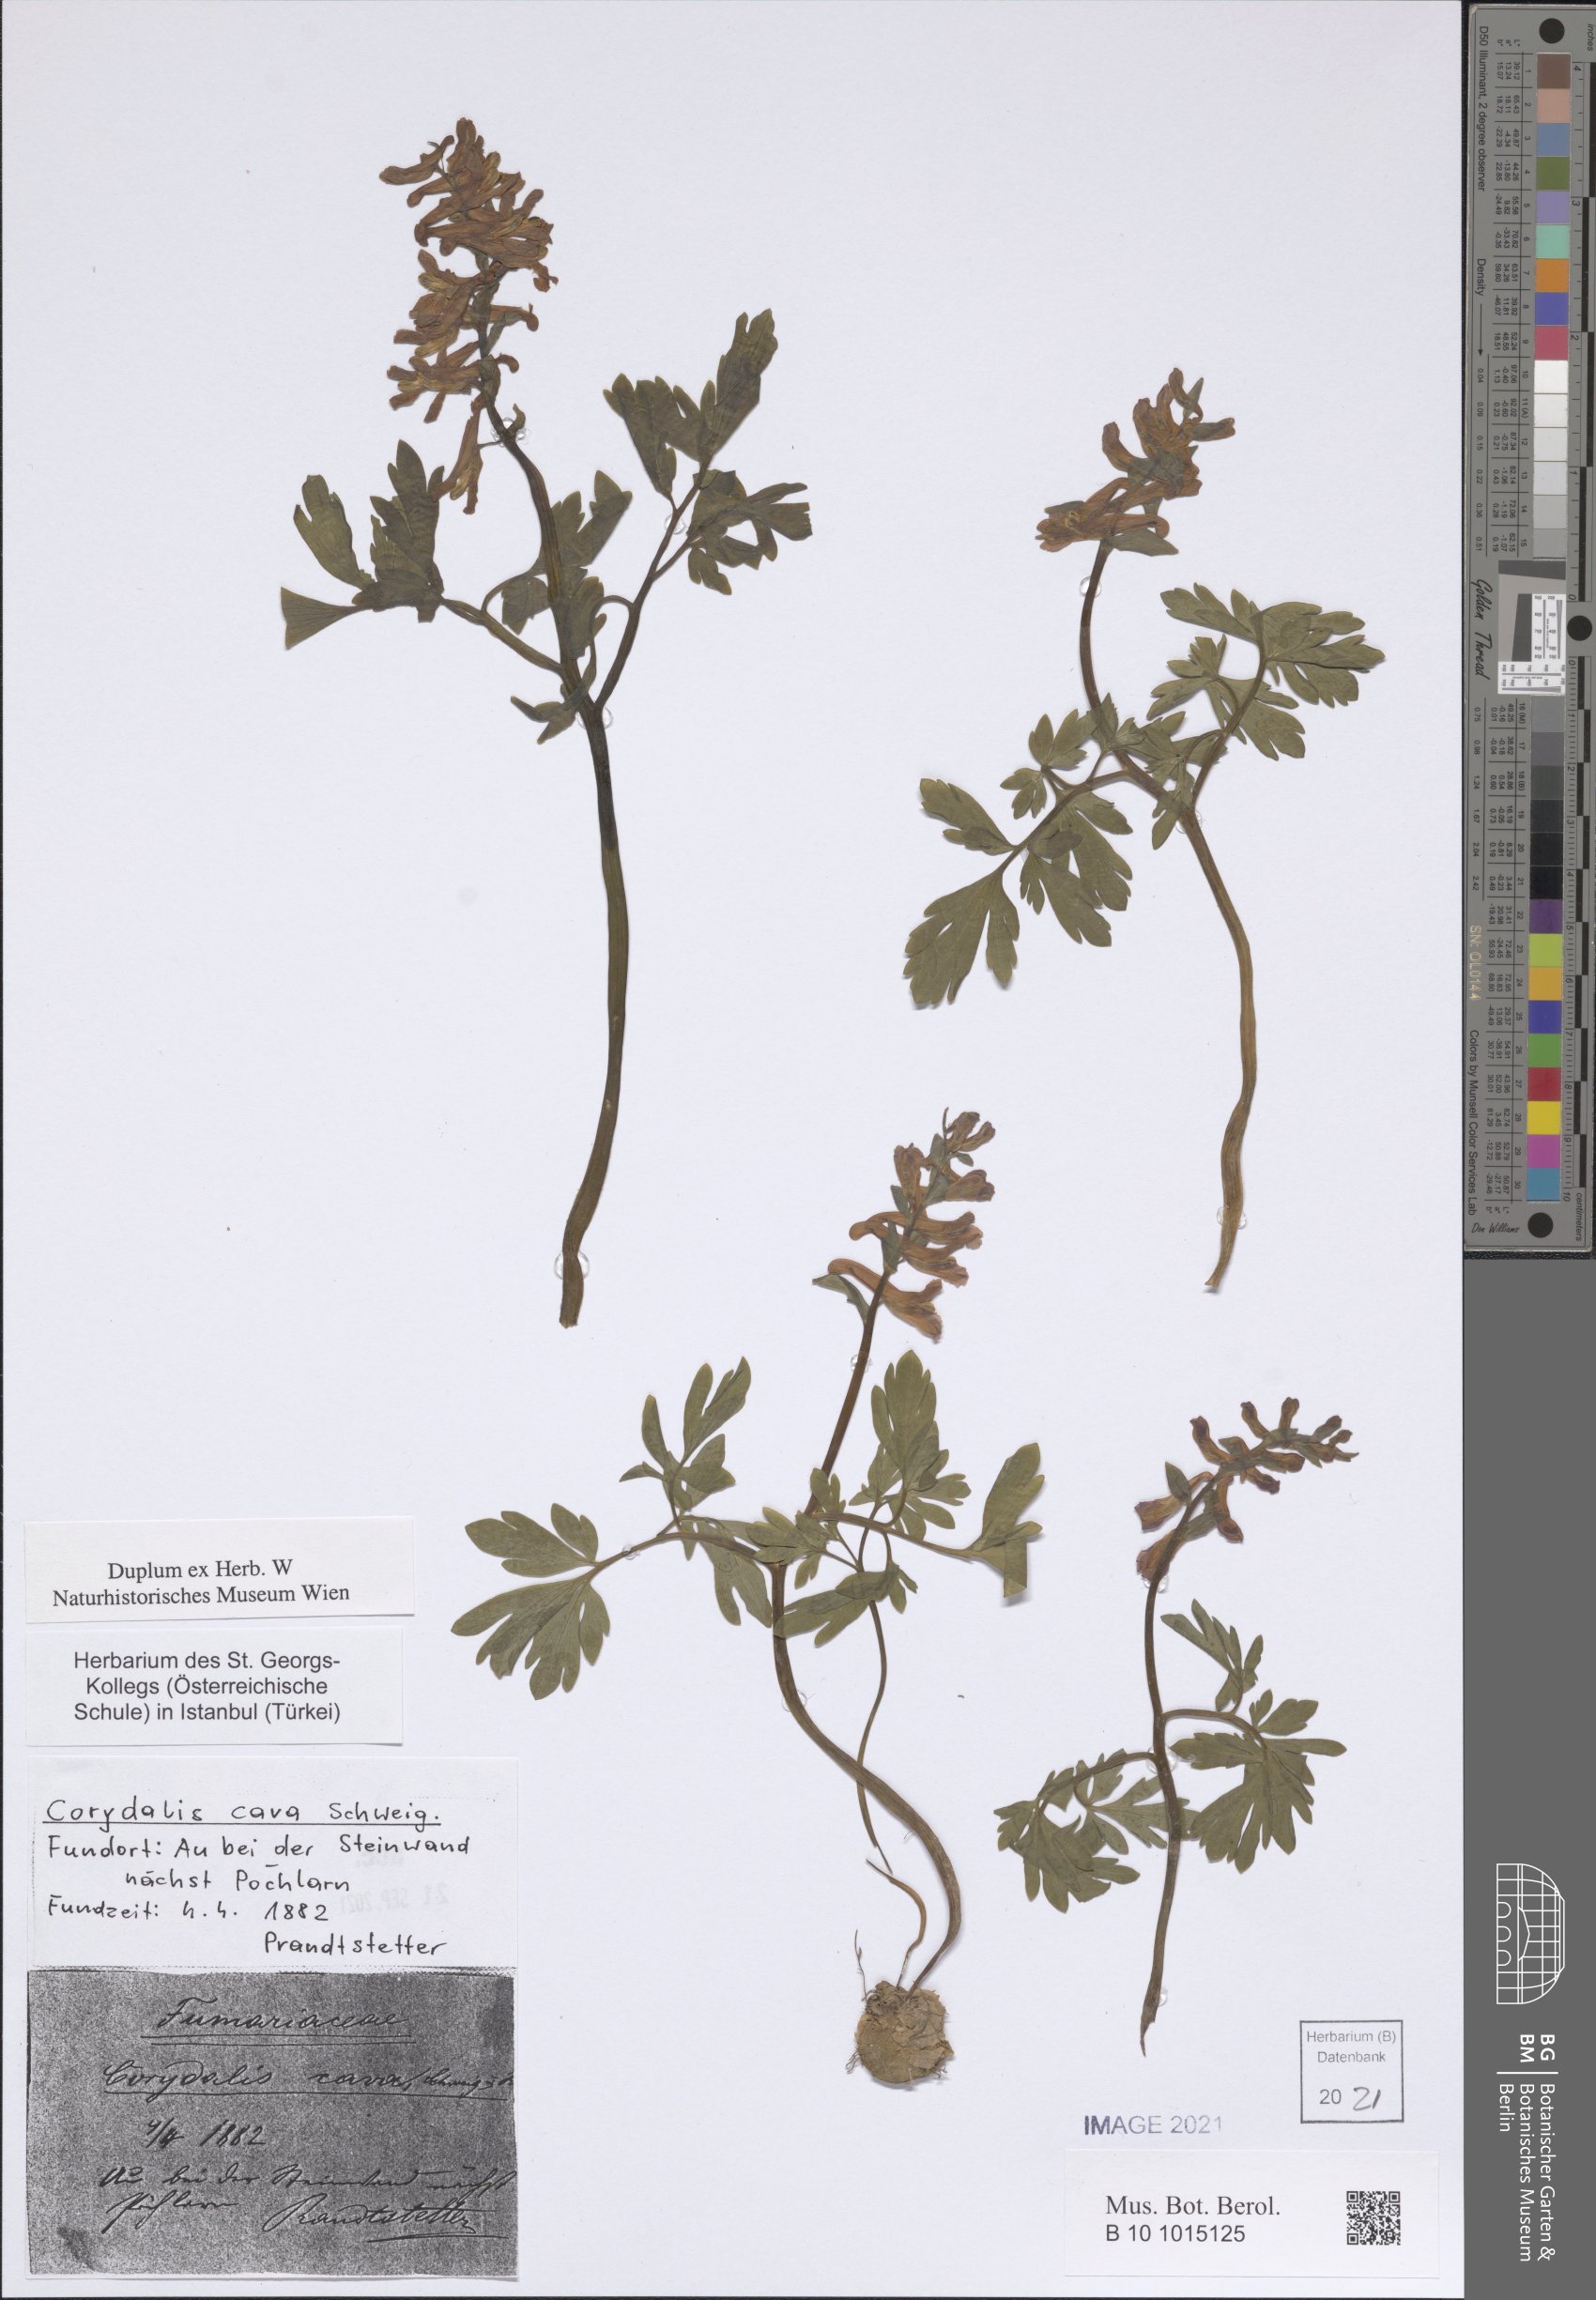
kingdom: Plantae
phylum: Tracheophyta
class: Magnoliopsida
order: Ranunculales
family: Papaveraceae
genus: Corydalis
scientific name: Corydalis cava
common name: Hollowroot
